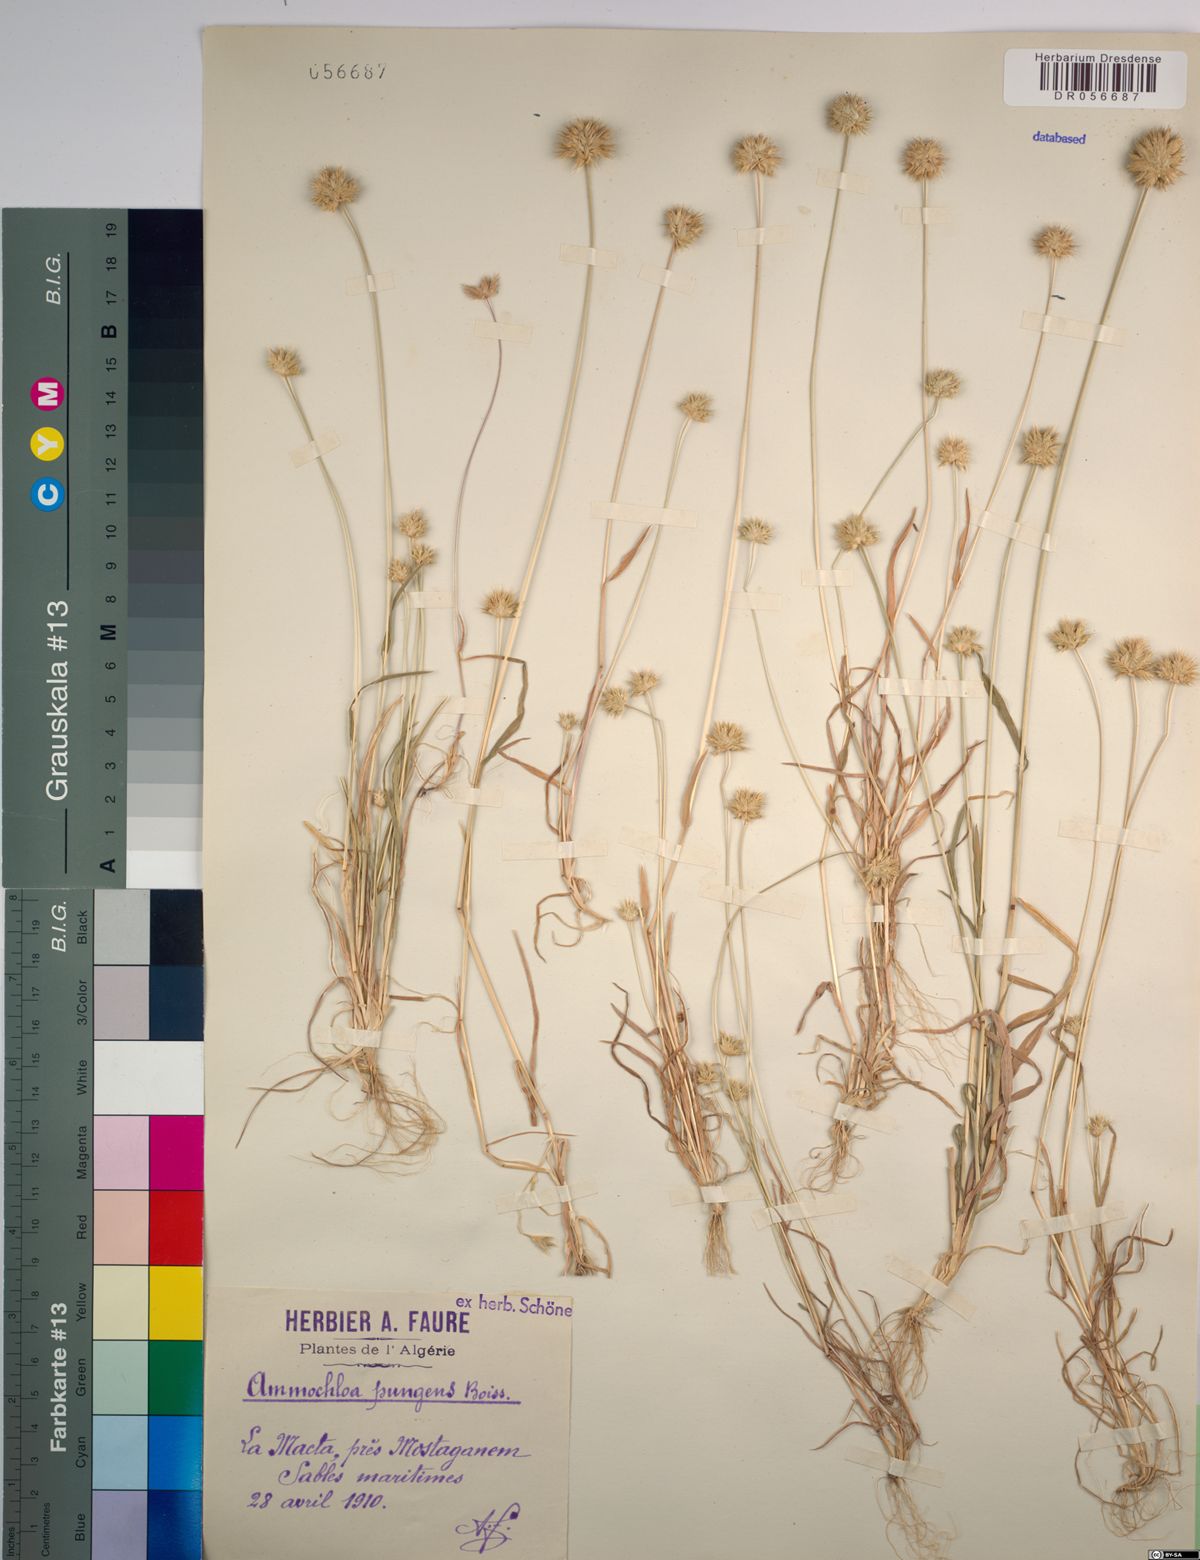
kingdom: Plantae
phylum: Tracheophyta
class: Liliopsida
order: Poales
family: Poaceae
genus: Ammochloa
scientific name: Ammochloa pungens
